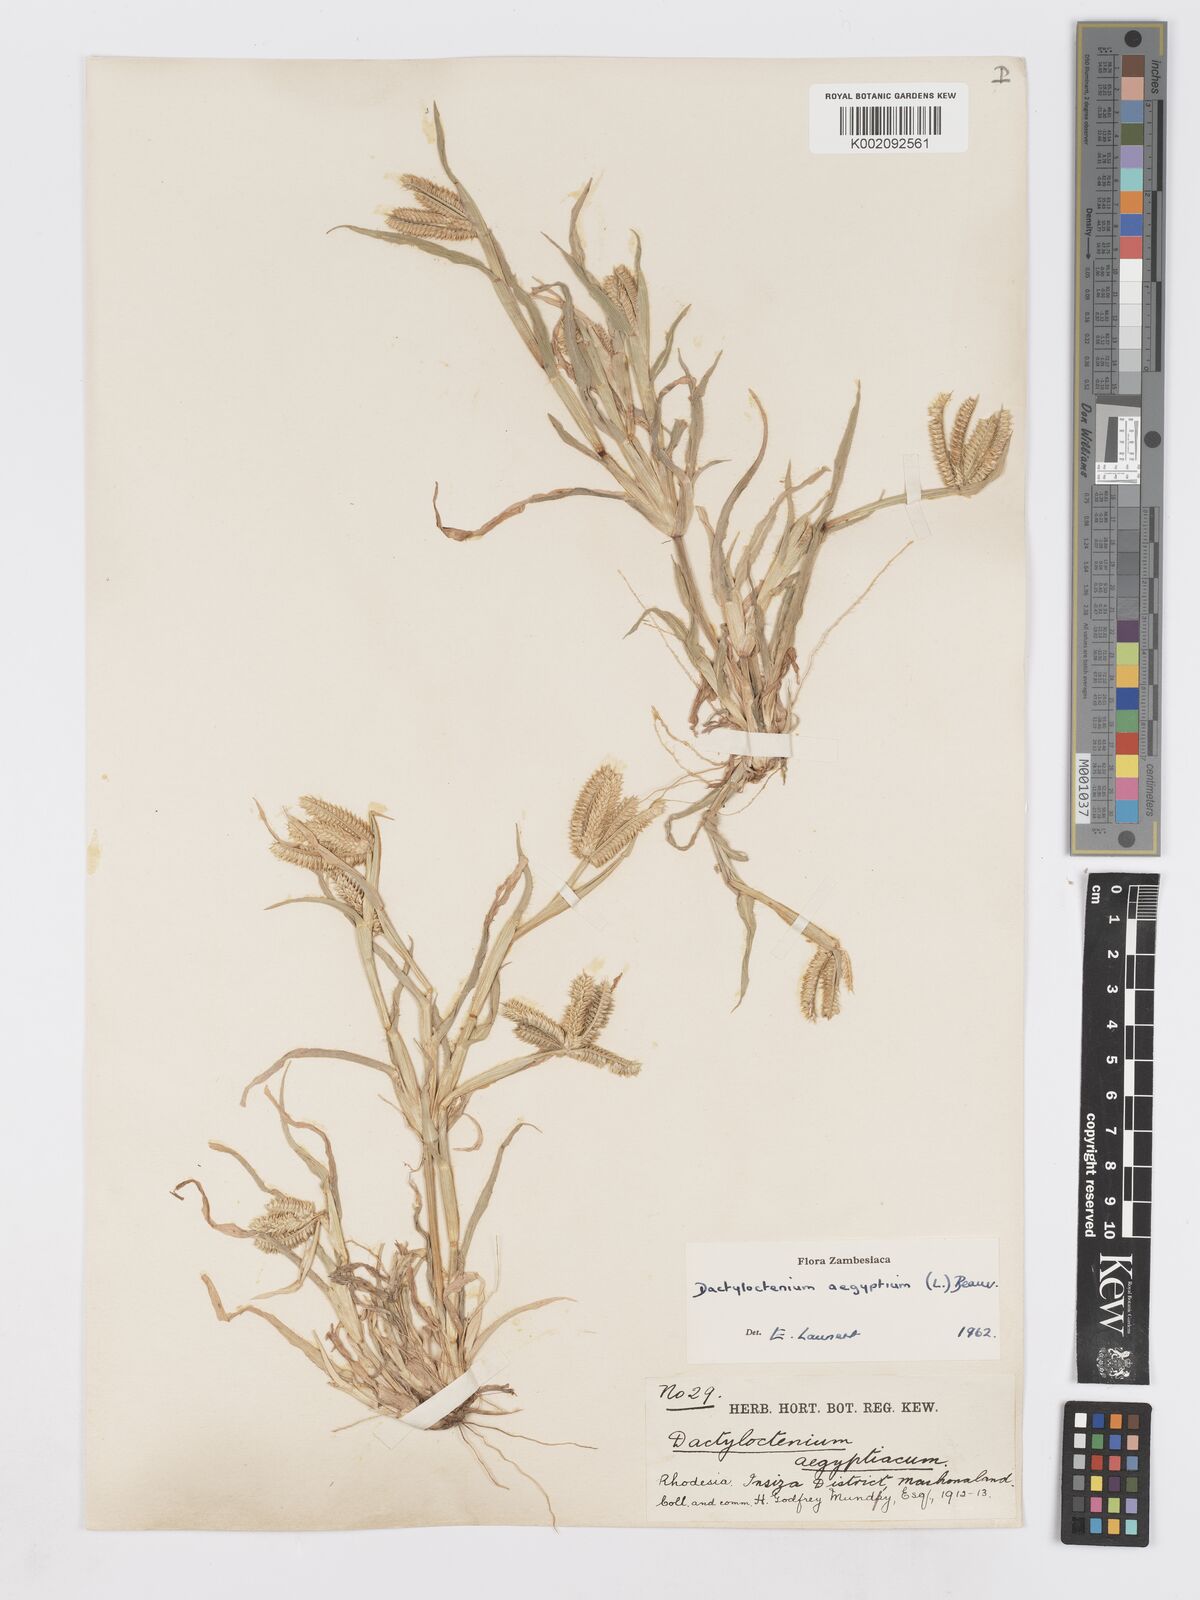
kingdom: Plantae
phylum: Tracheophyta
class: Liliopsida
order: Poales
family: Poaceae
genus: Dactyloctenium
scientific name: Dactyloctenium aegyptium
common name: Egyptian grass
